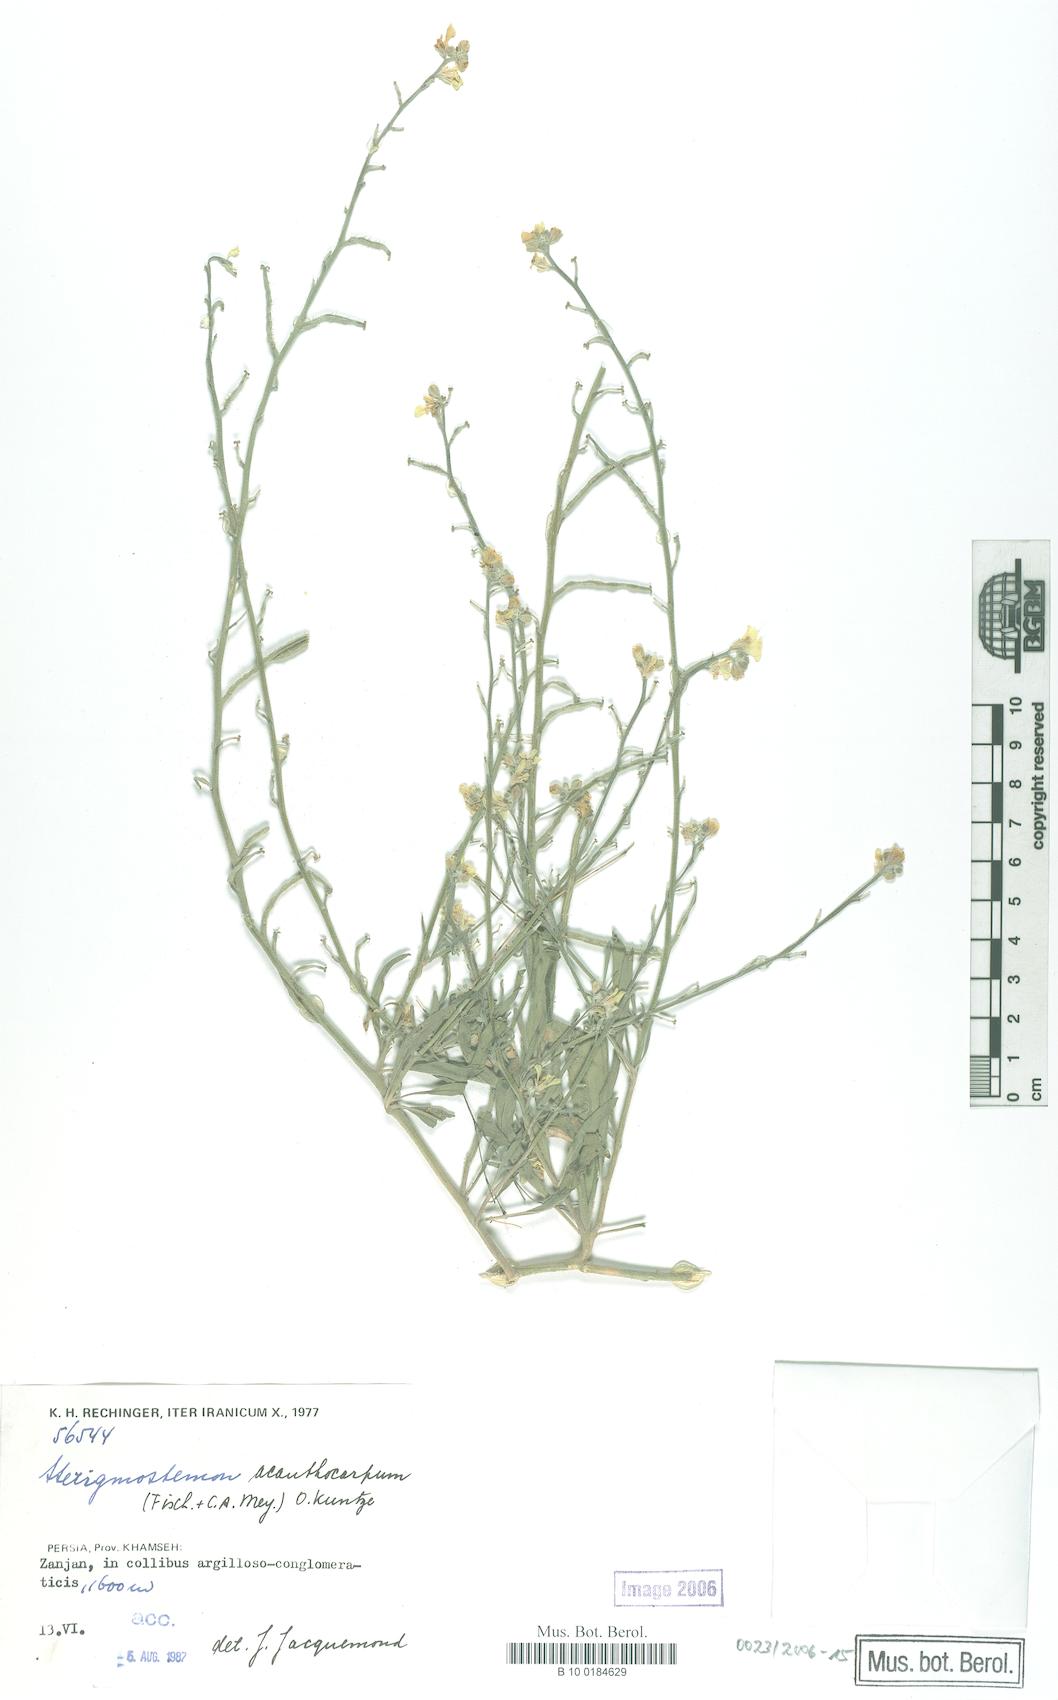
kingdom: Plantae
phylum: Tracheophyta
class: Magnoliopsida
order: Brassicales
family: Brassicaceae
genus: Sterigmostemum
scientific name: Sterigmostemum acanthocarpum
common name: Prickly-fruited sterigmostemum
